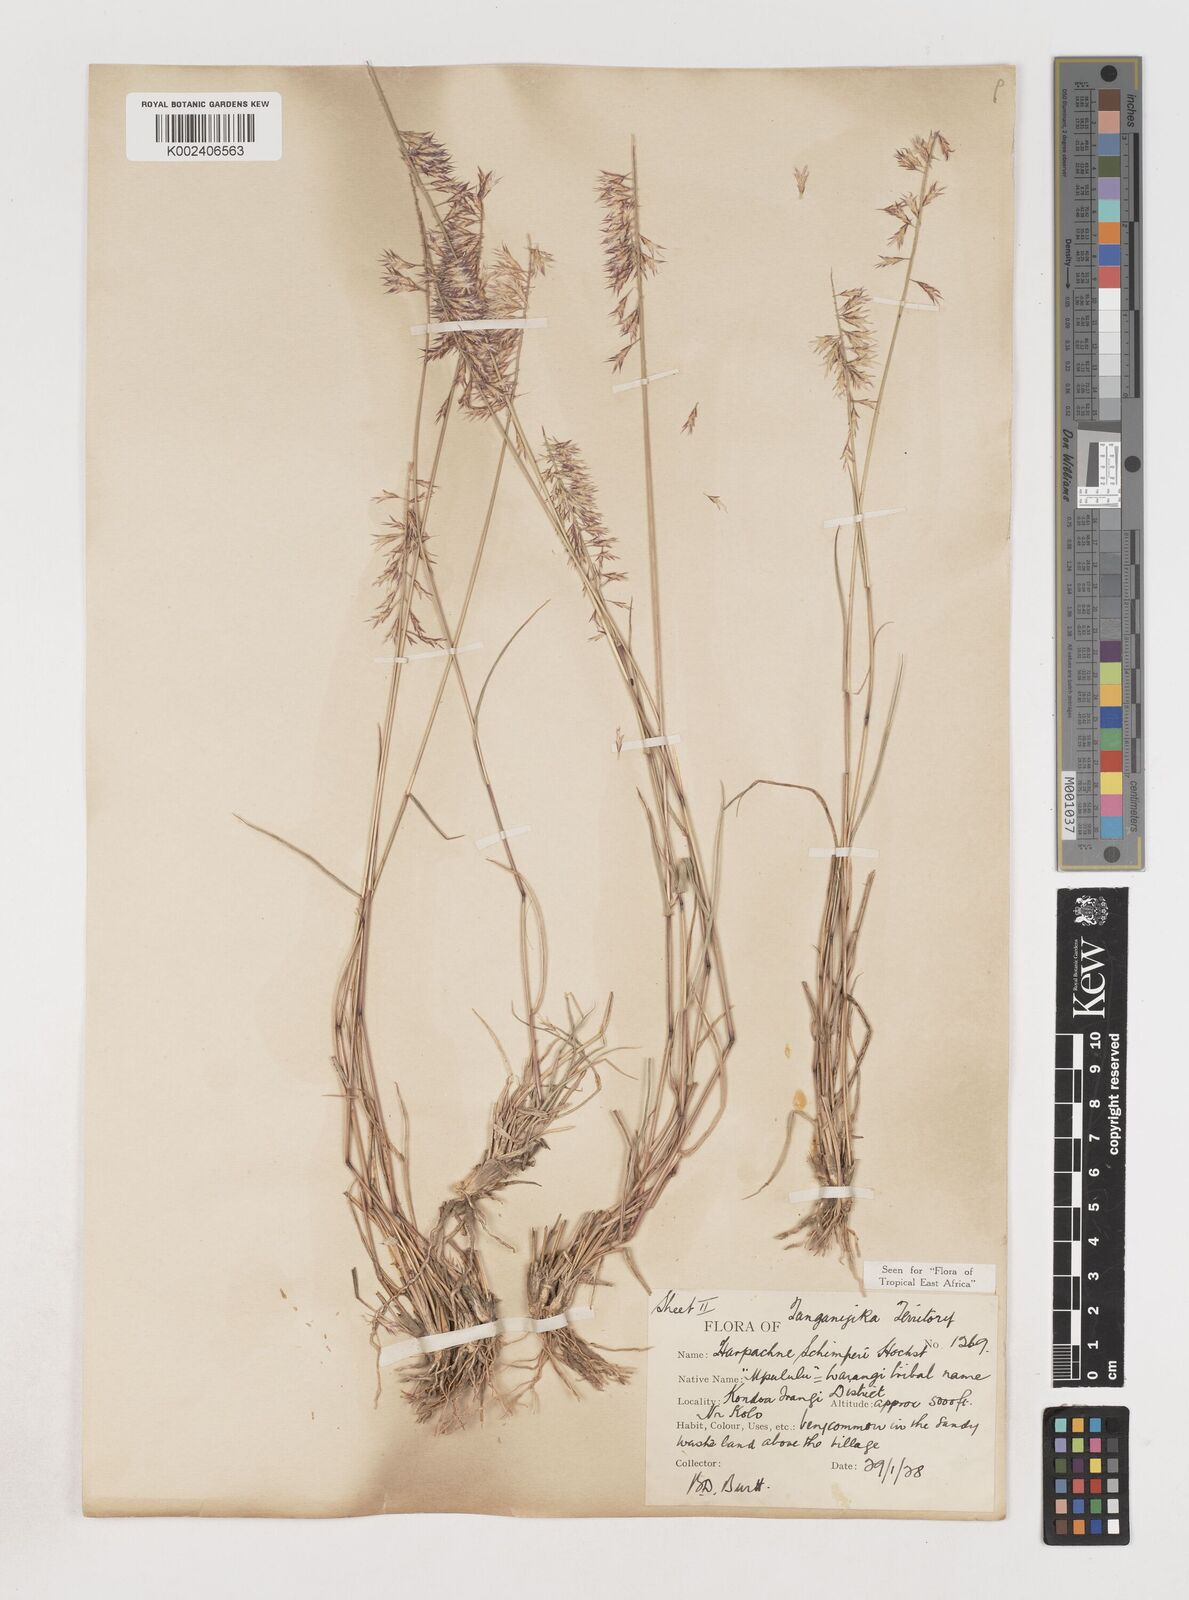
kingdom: Plantae
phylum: Tracheophyta
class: Liliopsida
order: Poales
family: Poaceae
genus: Harpachne
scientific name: Harpachne schimperi
